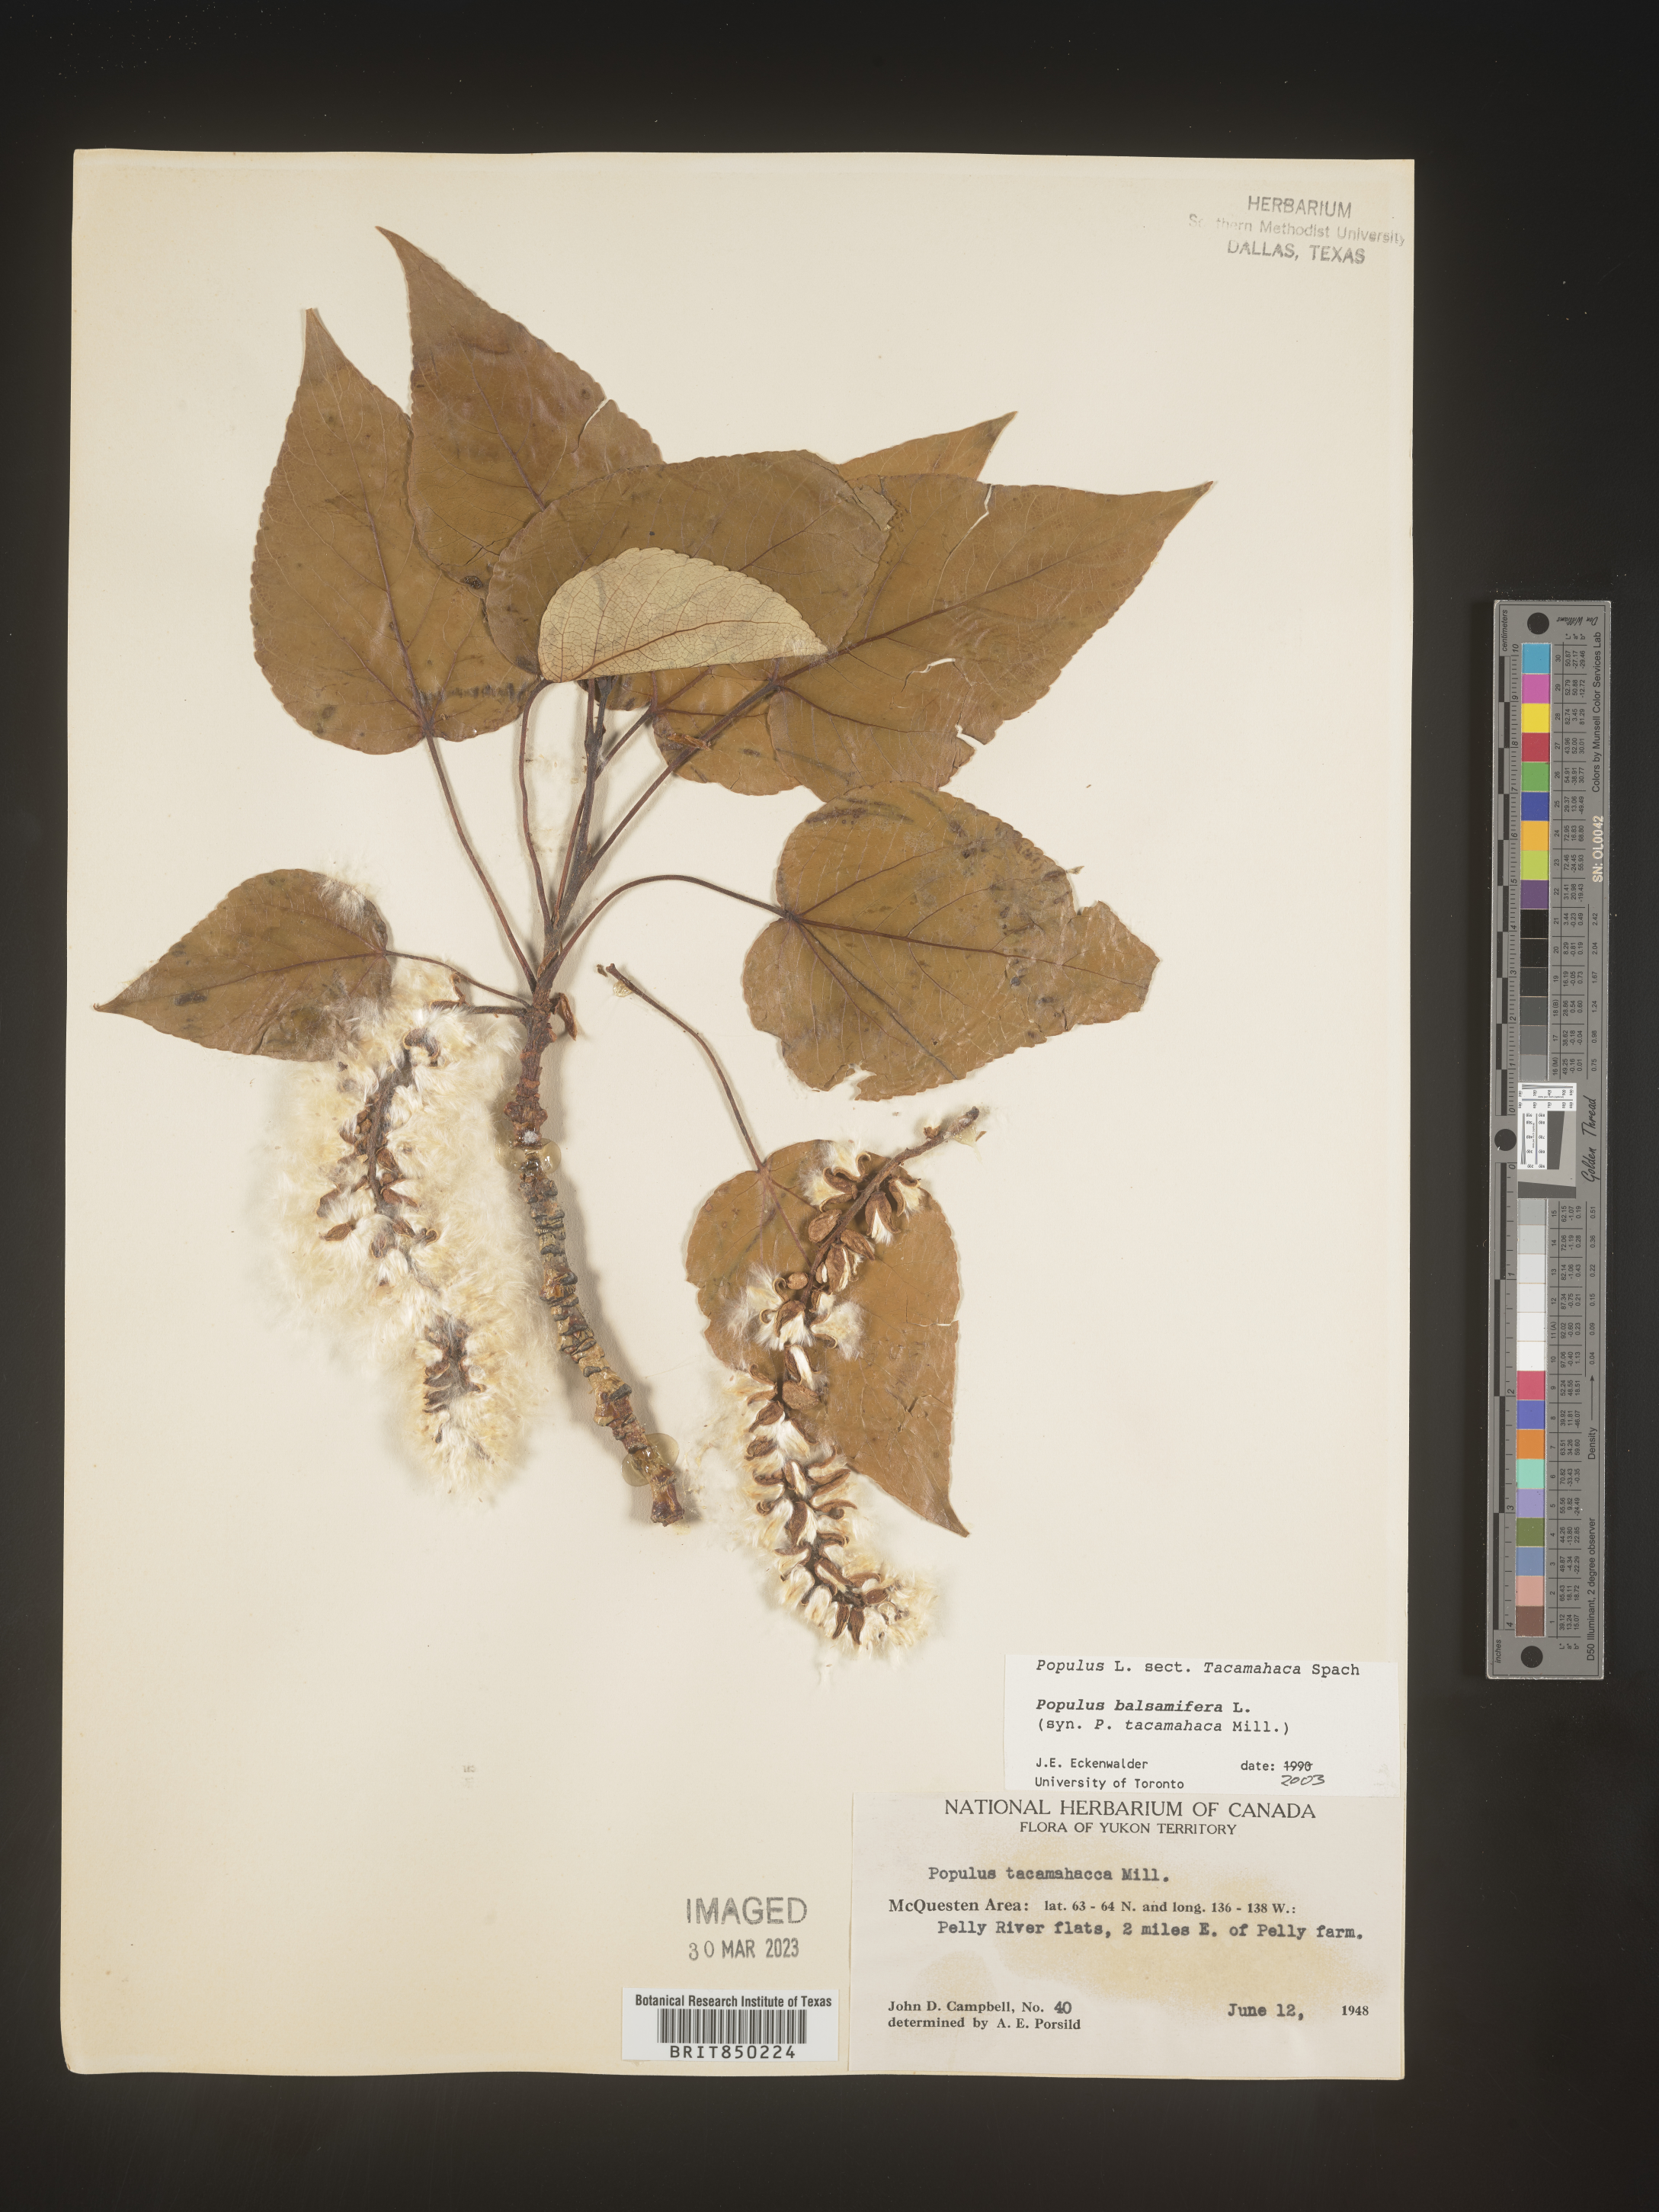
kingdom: Plantae
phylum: Tracheophyta
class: Magnoliopsida
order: Malpighiales
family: Salicaceae
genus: Populus
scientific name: Populus balsamifera
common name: Balsam poplar
